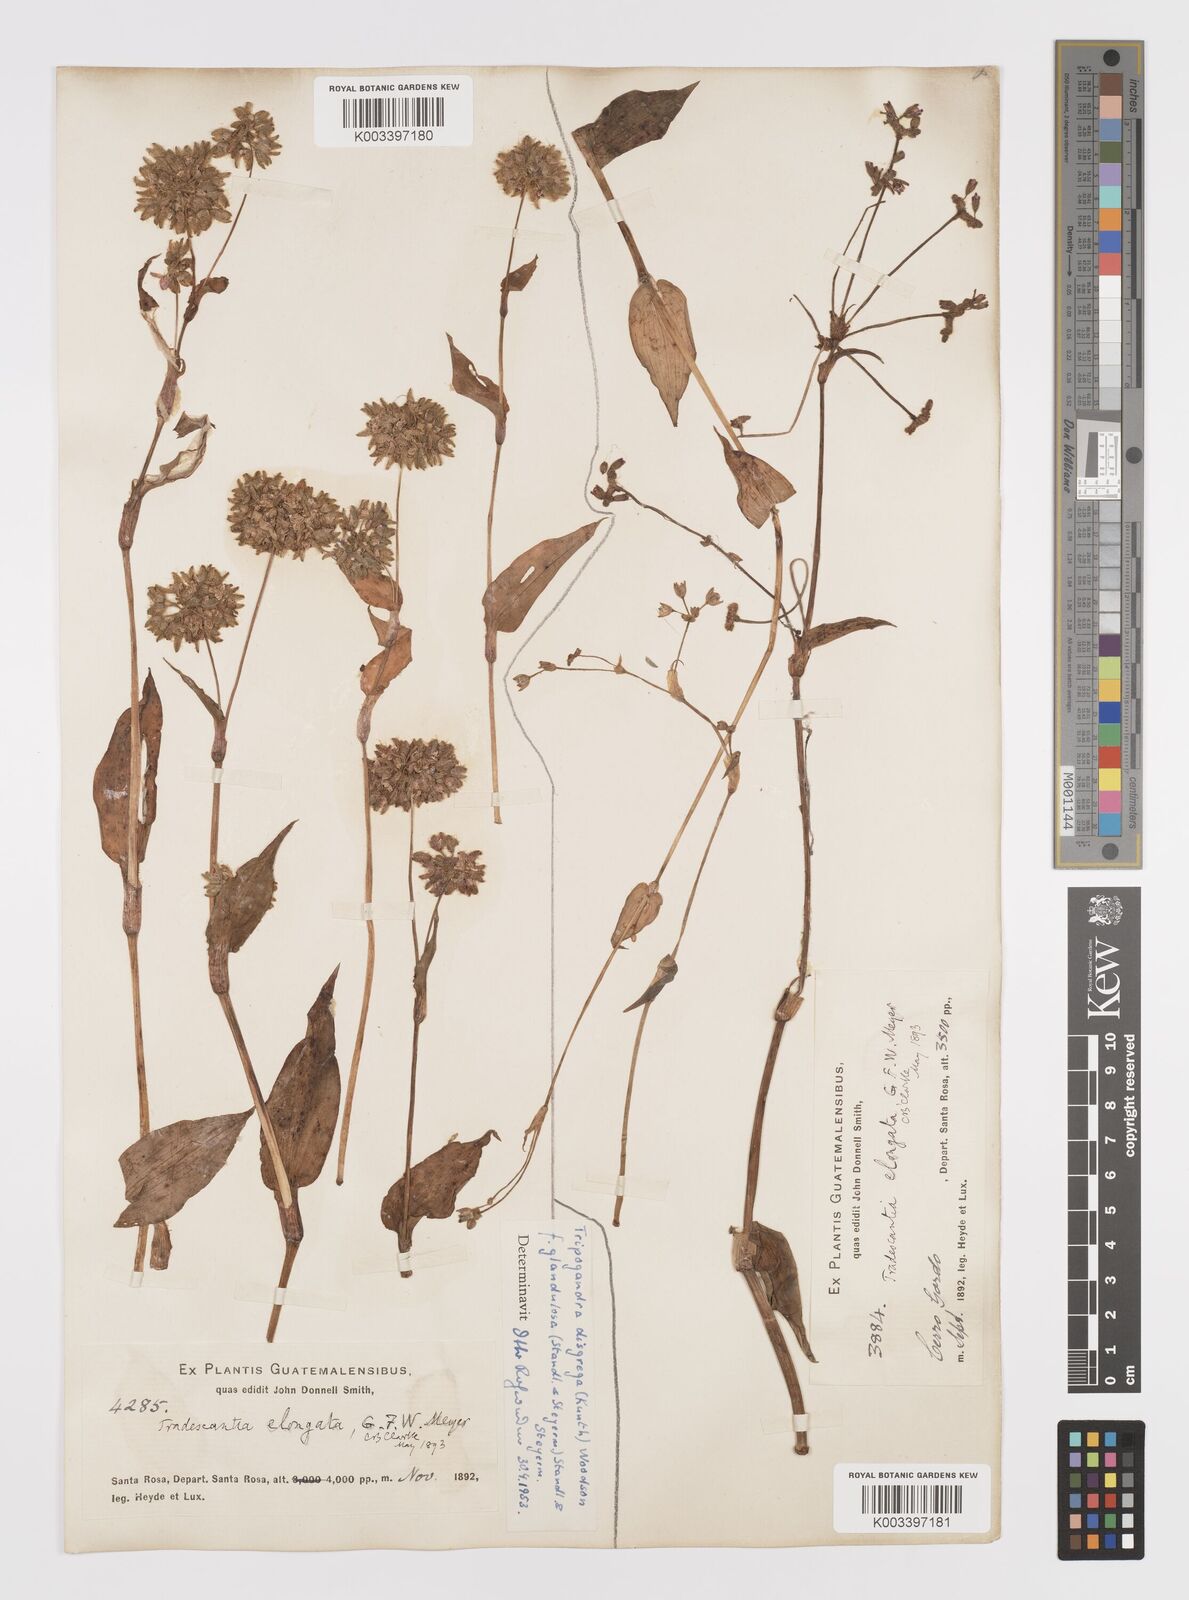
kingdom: Plantae
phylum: Tracheophyta
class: Liliopsida
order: Commelinales
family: Commelinaceae
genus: Callisia
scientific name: Callisia disgrega
